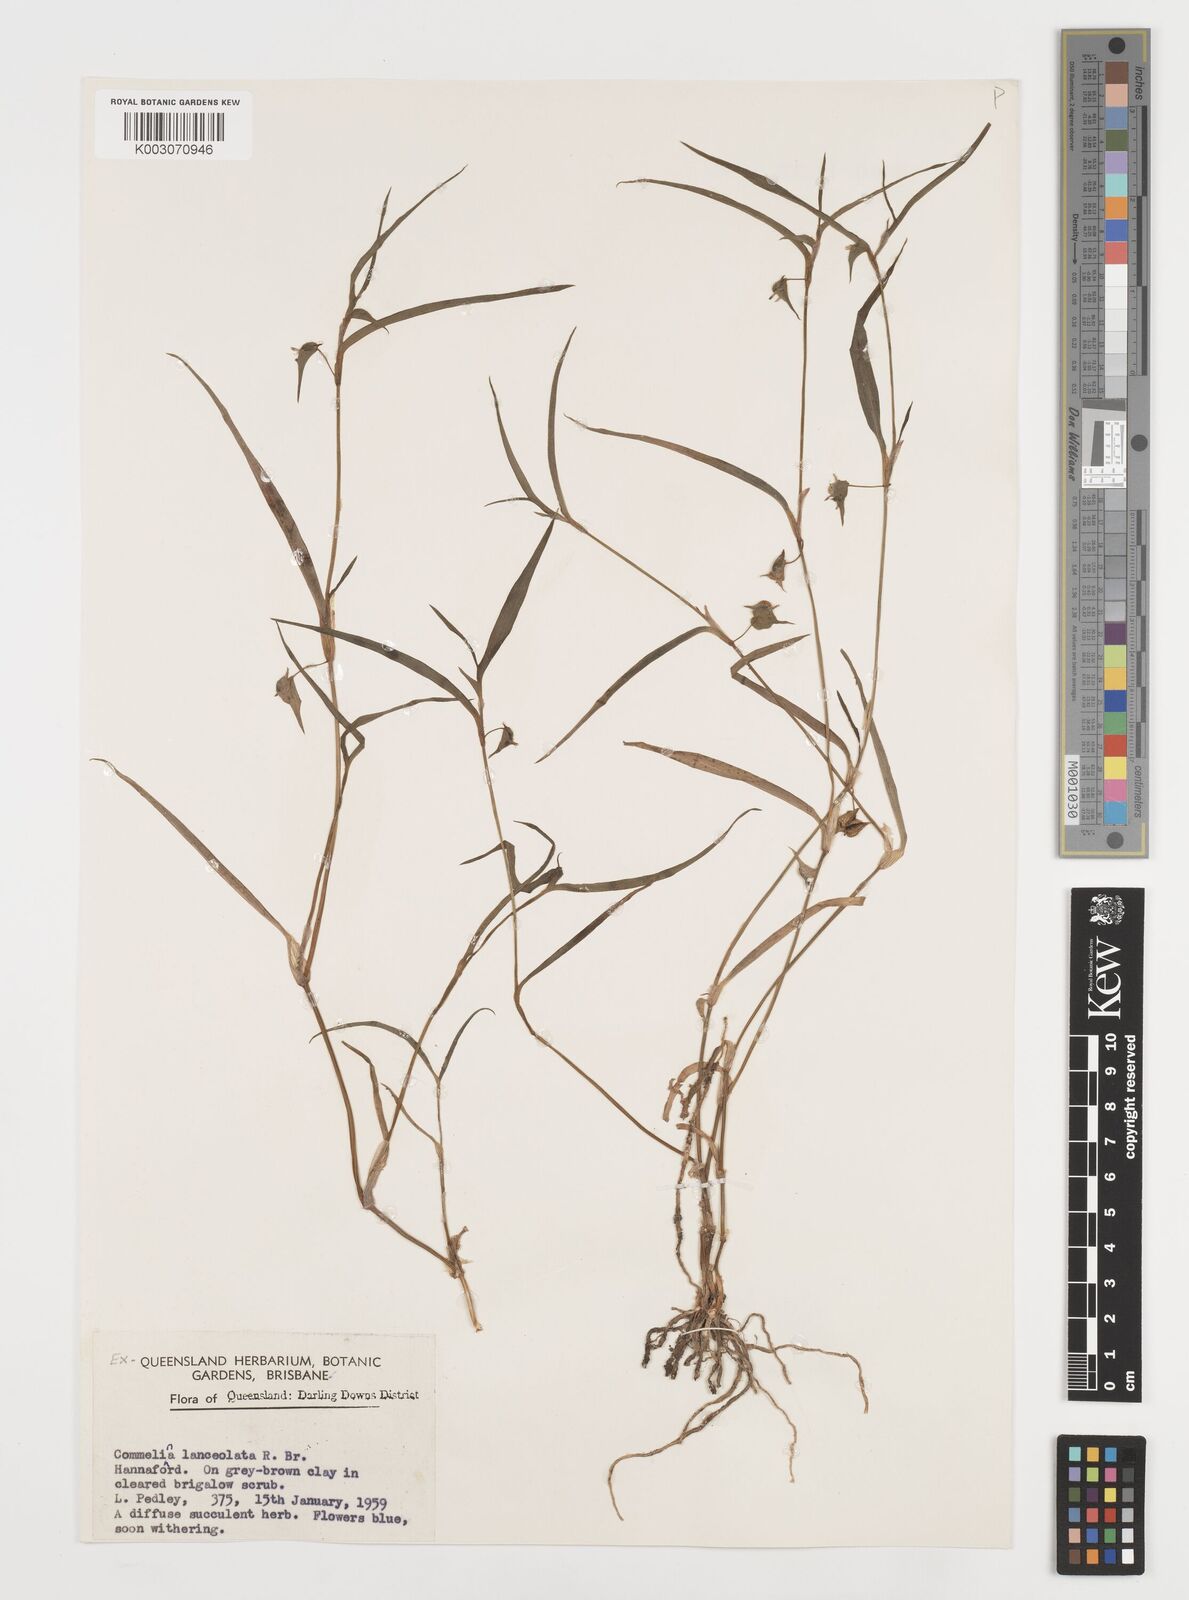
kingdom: Plantae
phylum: Tracheophyta
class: Liliopsida
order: Commelinales
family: Commelinaceae
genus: Commelina
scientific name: Commelina lanceolata
